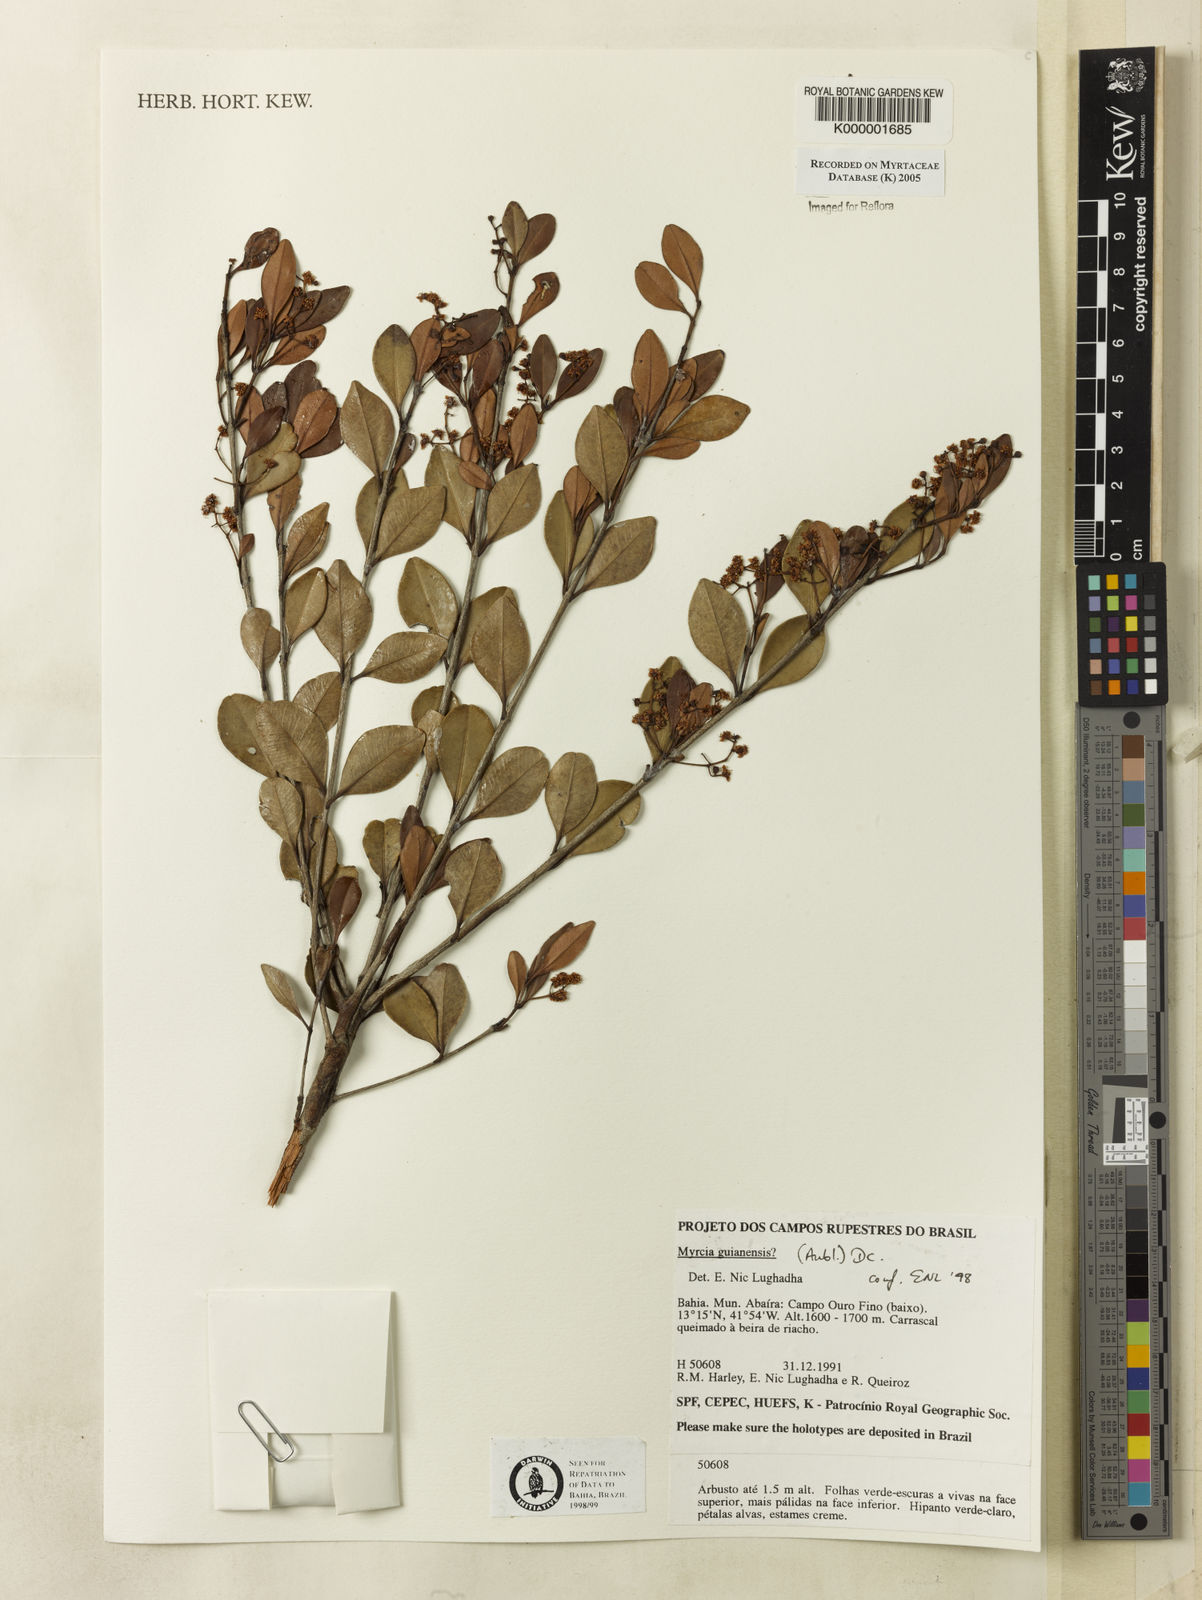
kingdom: Plantae
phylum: Tracheophyta
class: Magnoliopsida
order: Myrtales
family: Myrtaceae
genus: Myrcia
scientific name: Myrcia guianensis
